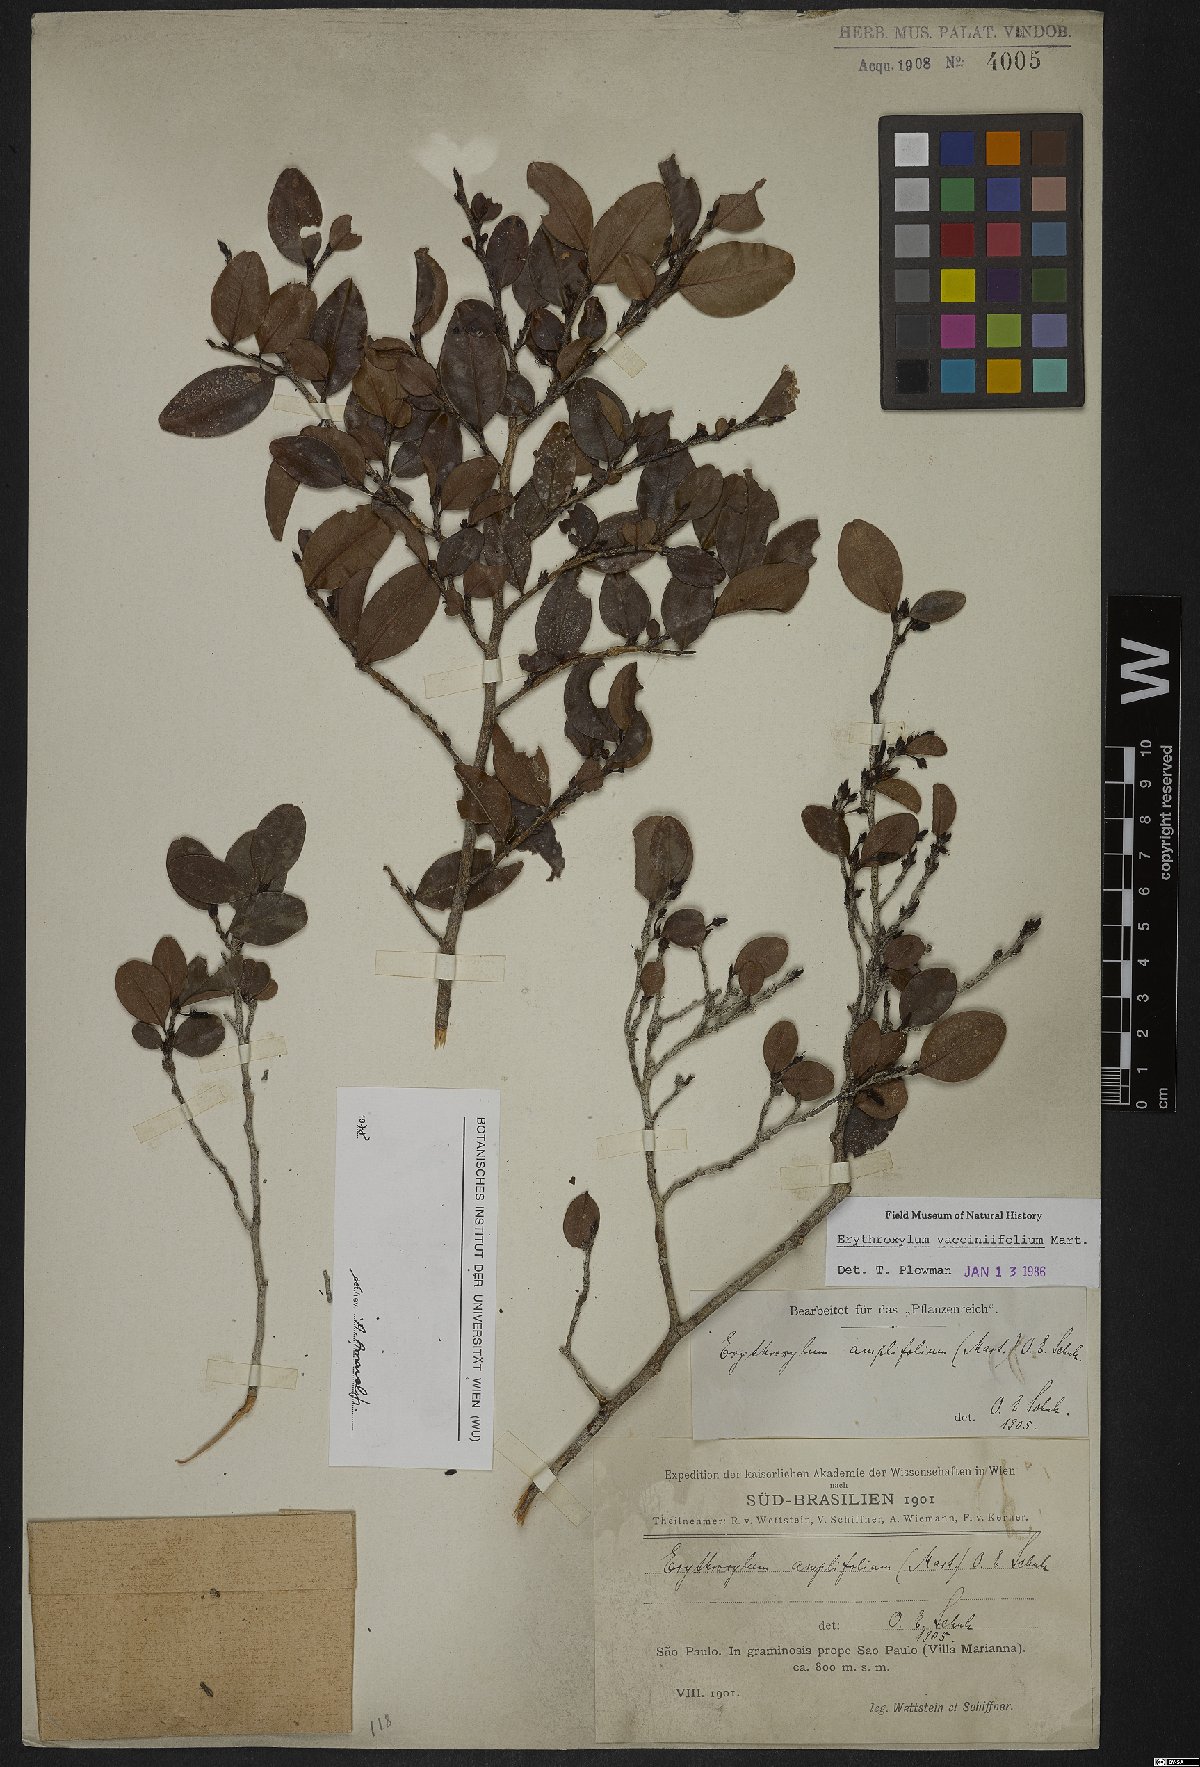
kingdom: Plantae
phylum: Tracheophyta
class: Magnoliopsida
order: Malpighiales
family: Erythroxylaceae
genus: Erythroxylum
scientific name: Erythroxylum vaccinifolium
